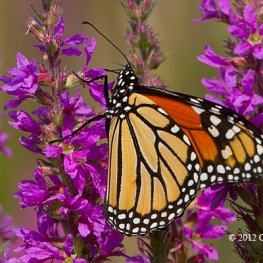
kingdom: Animalia
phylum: Arthropoda
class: Insecta
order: Lepidoptera
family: Nymphalidae
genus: Danaus
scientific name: Danaus plexippus
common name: Monarch
